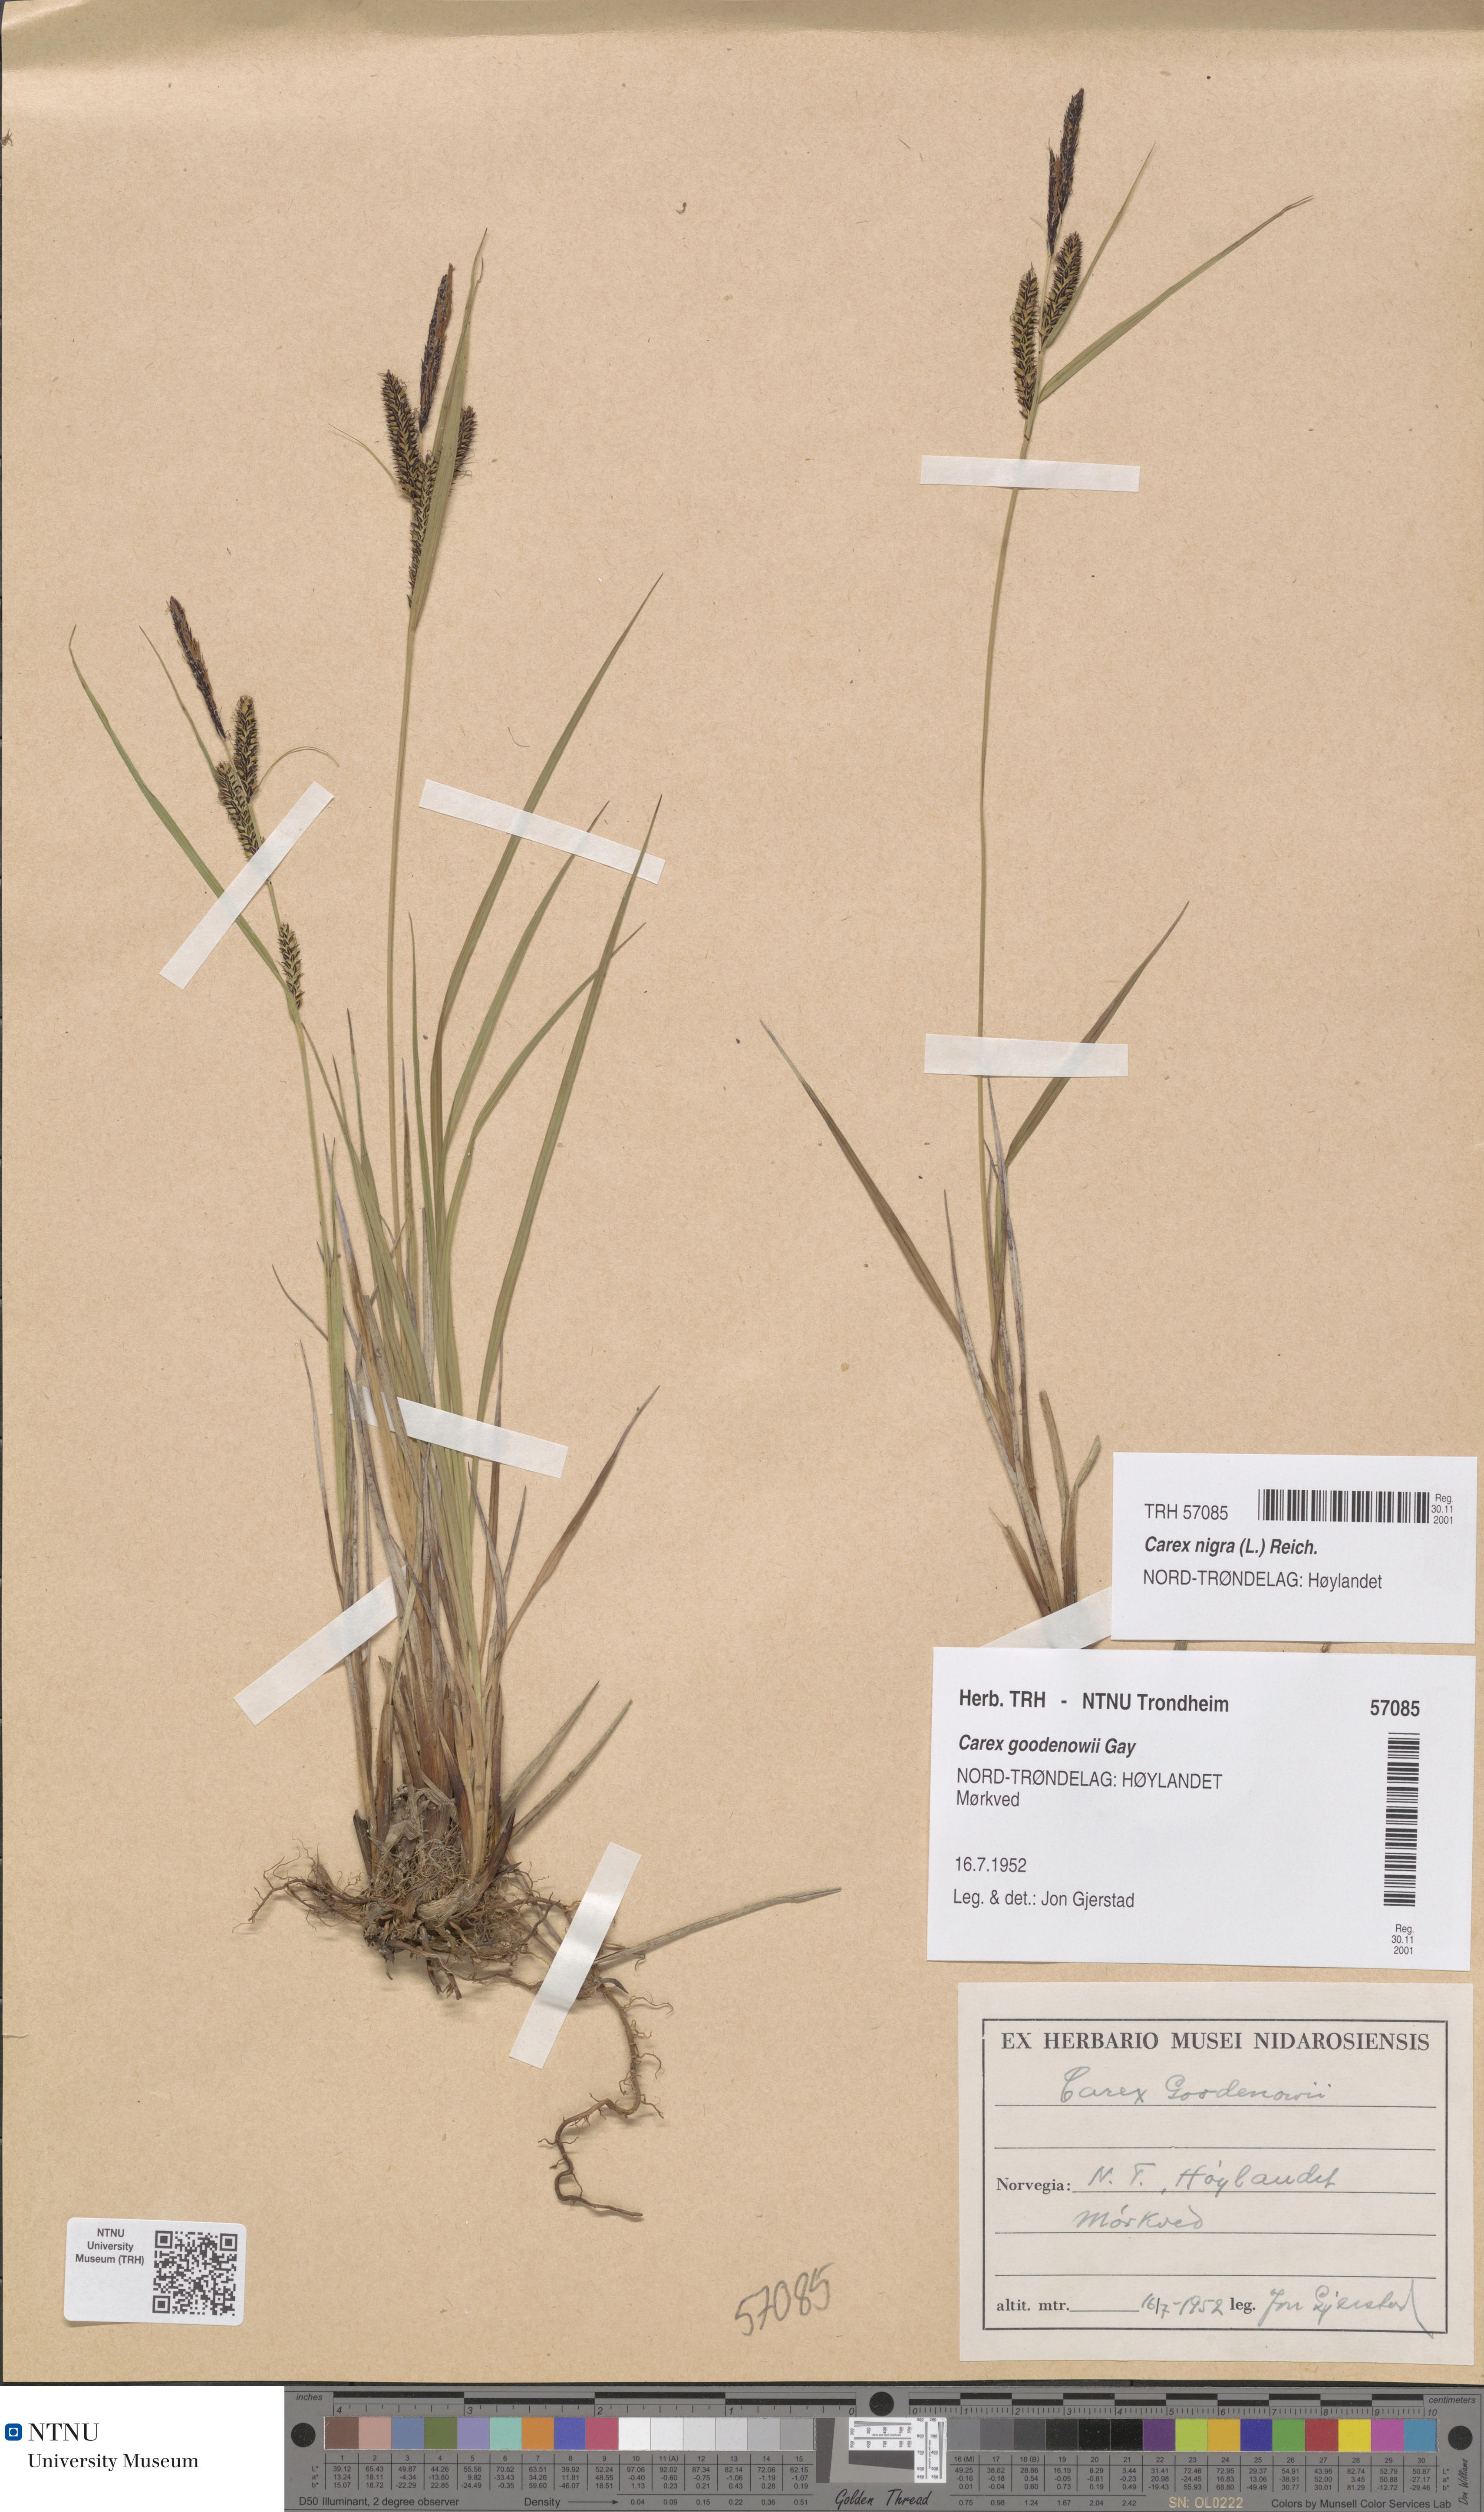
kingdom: Plantae
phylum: Tracheophyta
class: Liliopsida
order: Poales
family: Cyperaceae
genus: Carex
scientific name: Carex nigra
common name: Common sedge
